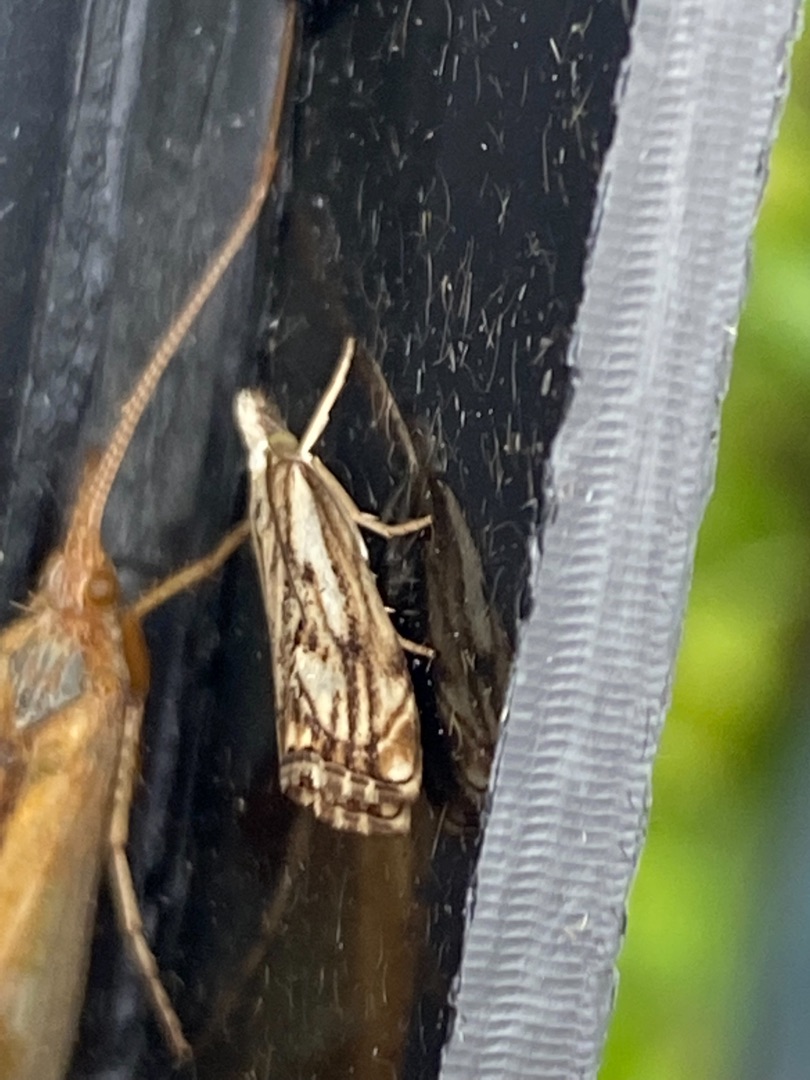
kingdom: Animalia
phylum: Arthropoda
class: Insecta
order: Lepidoptera
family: Crambidae
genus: Catoptria
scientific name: Catoptria falsella
